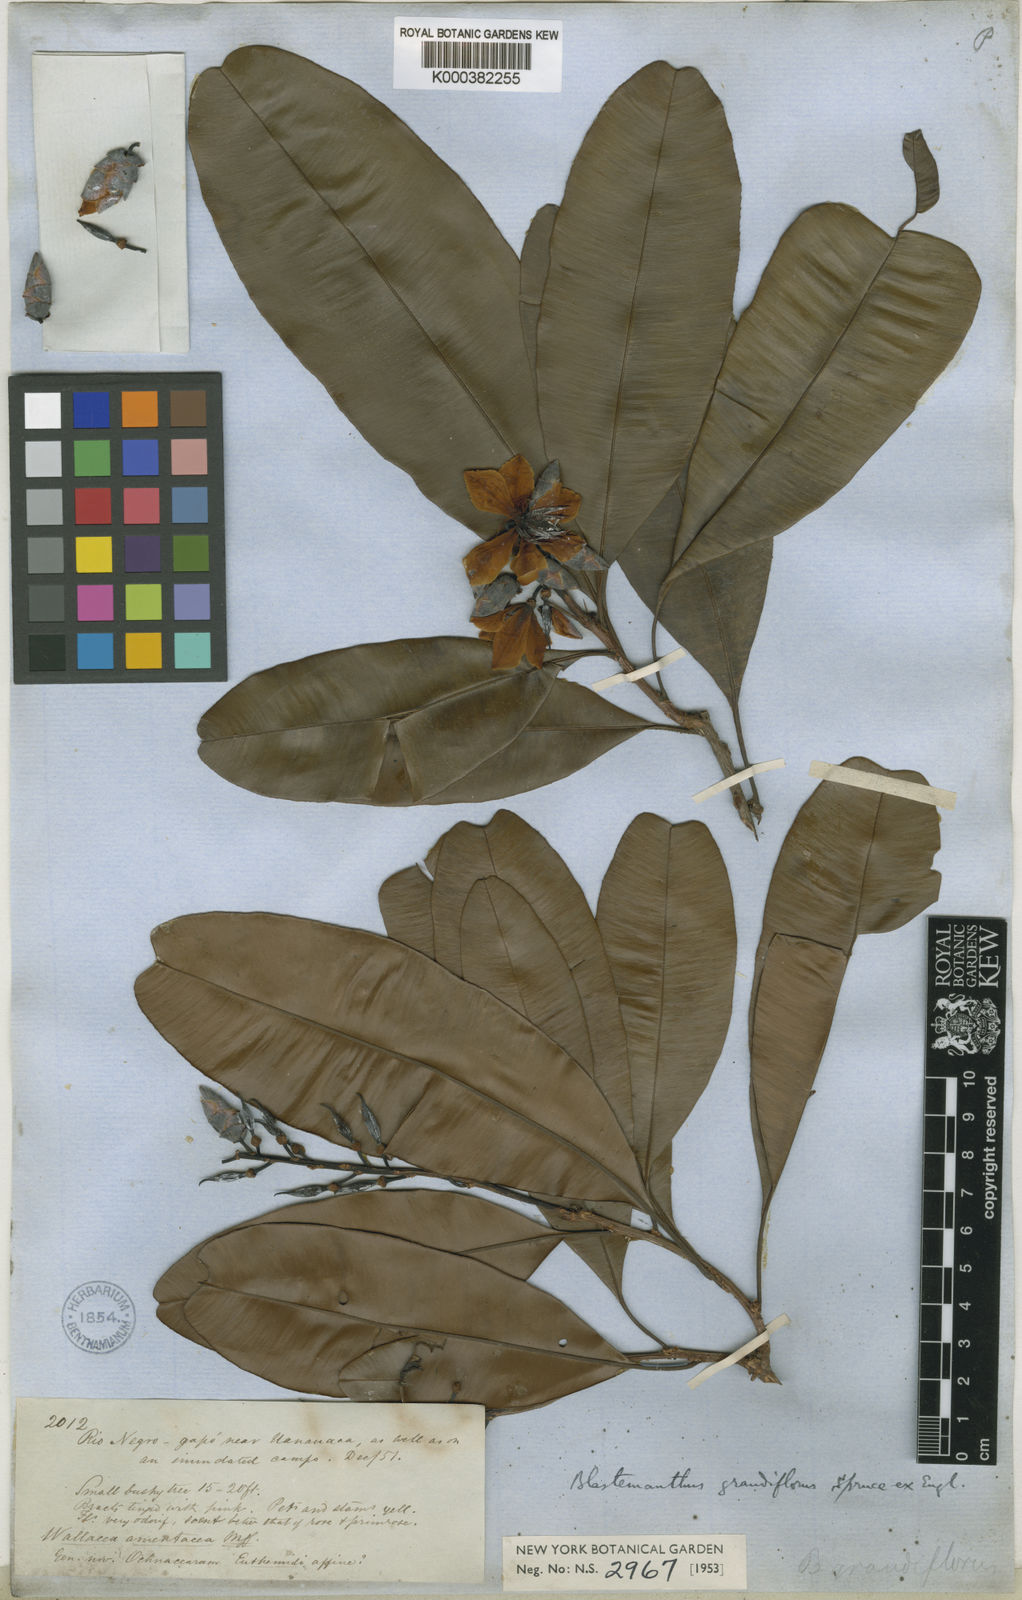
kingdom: Plantae
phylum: Tracheophyta
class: Magnoliopsida
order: Malpighiales
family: Ochnaceae
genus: Blastemanthus
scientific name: Blastemanthus
